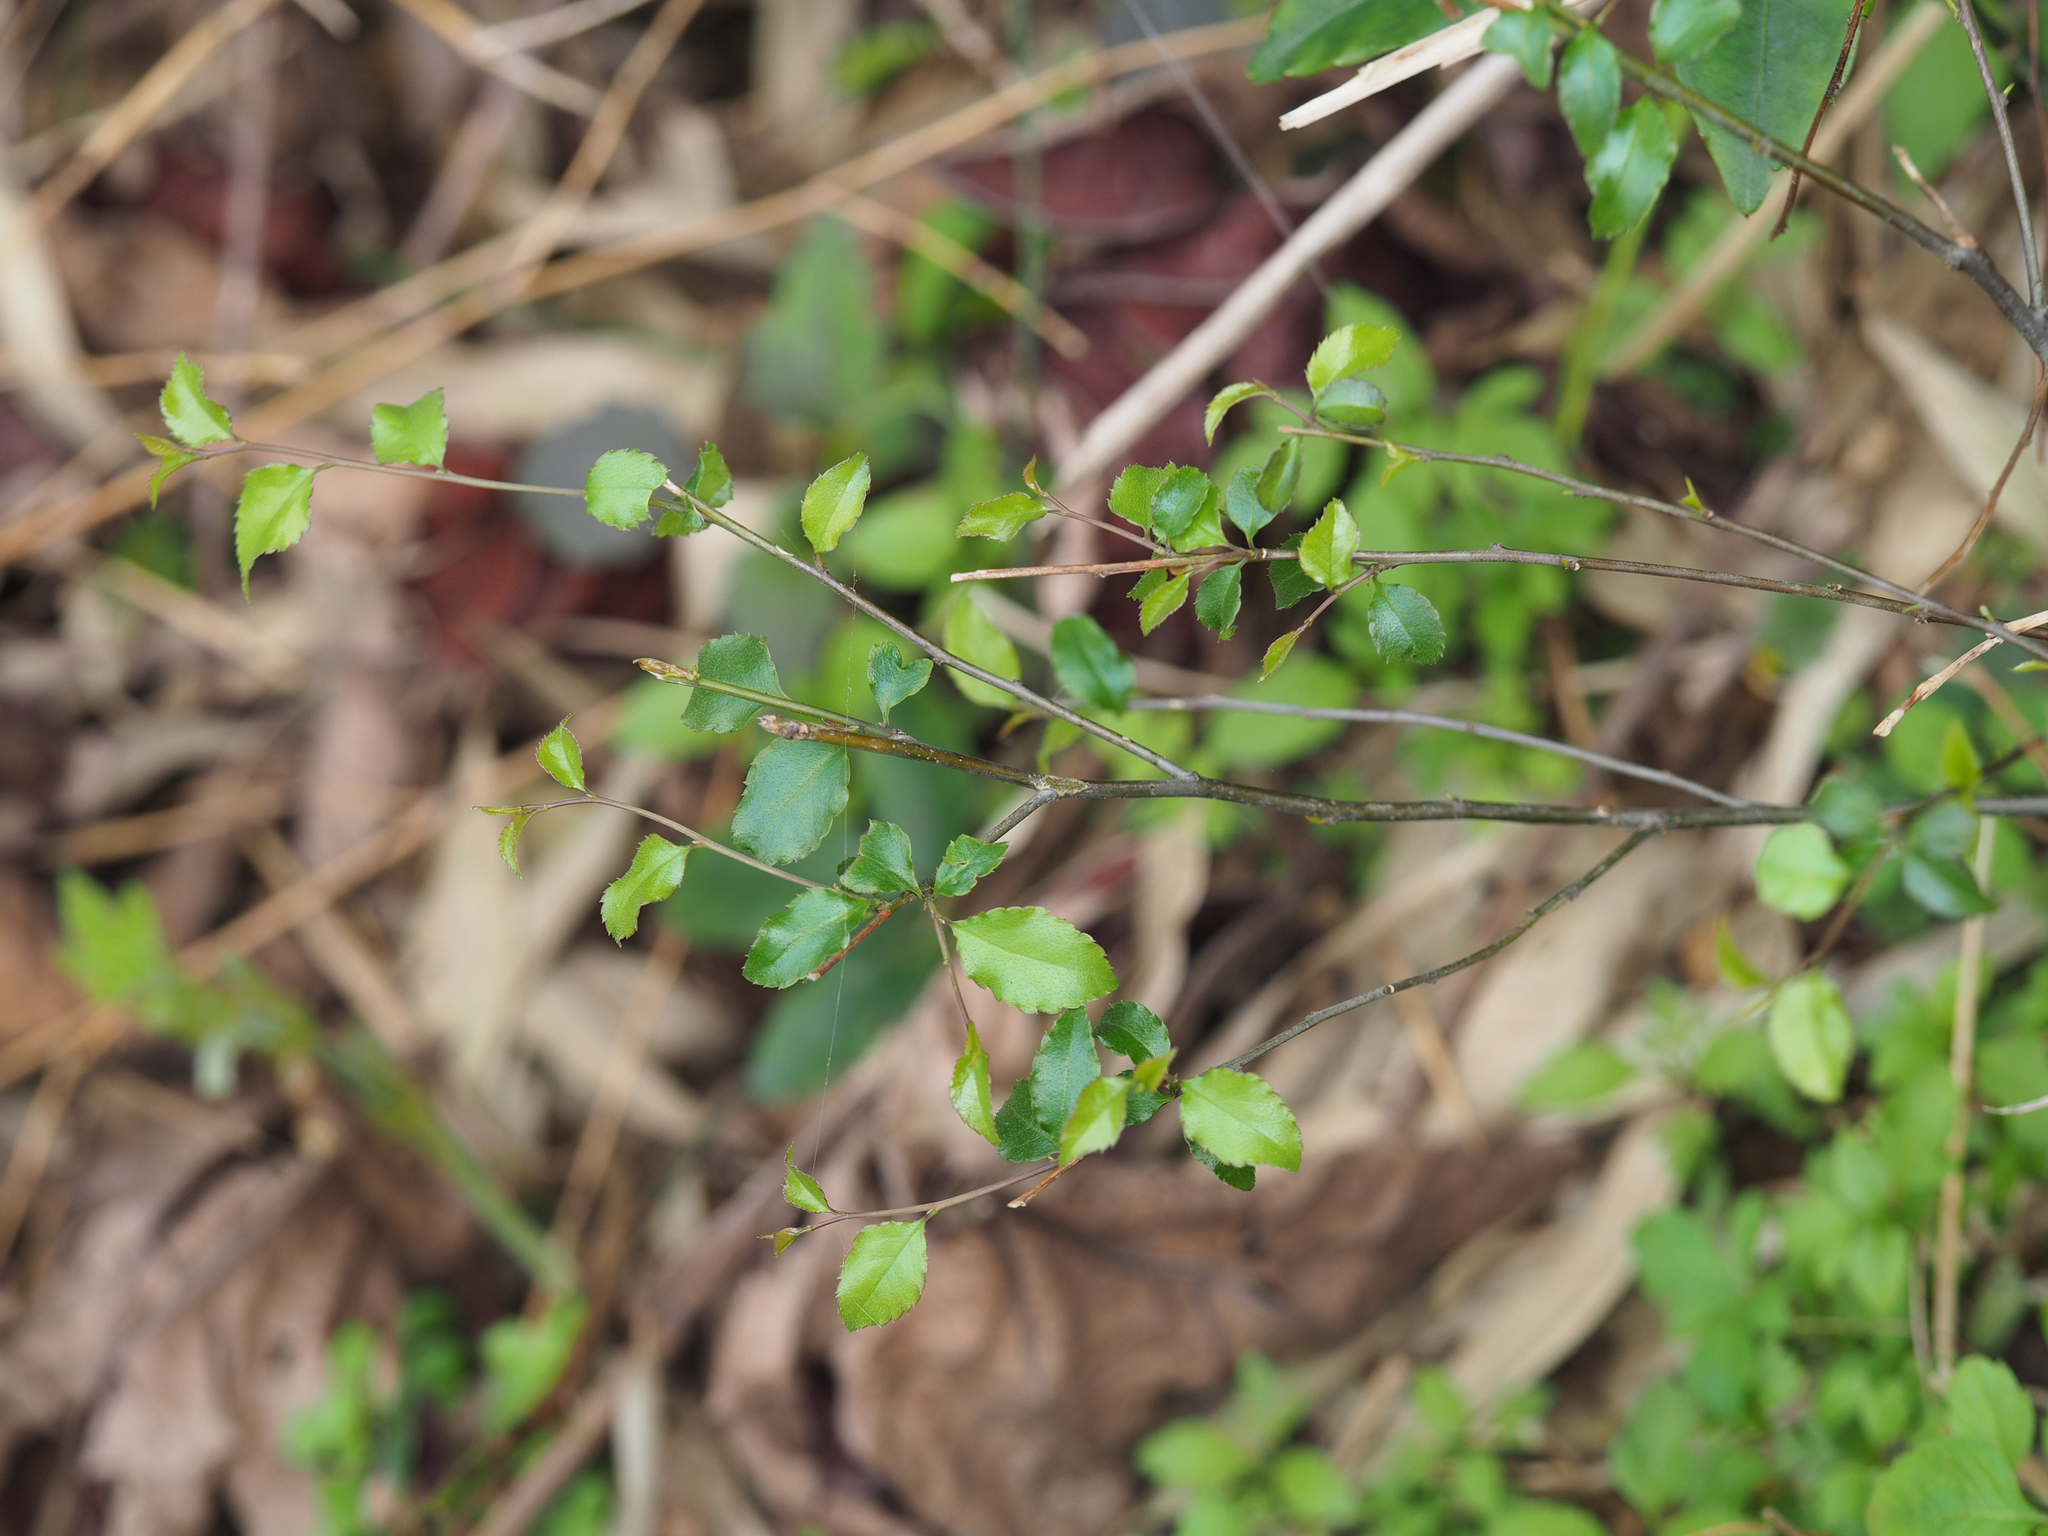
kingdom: Plantae
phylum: Tracheophyta
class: Magnoliopsida
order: Aquifoliales
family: Aquifoliaceae
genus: Ilex
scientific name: Ilex asprella
